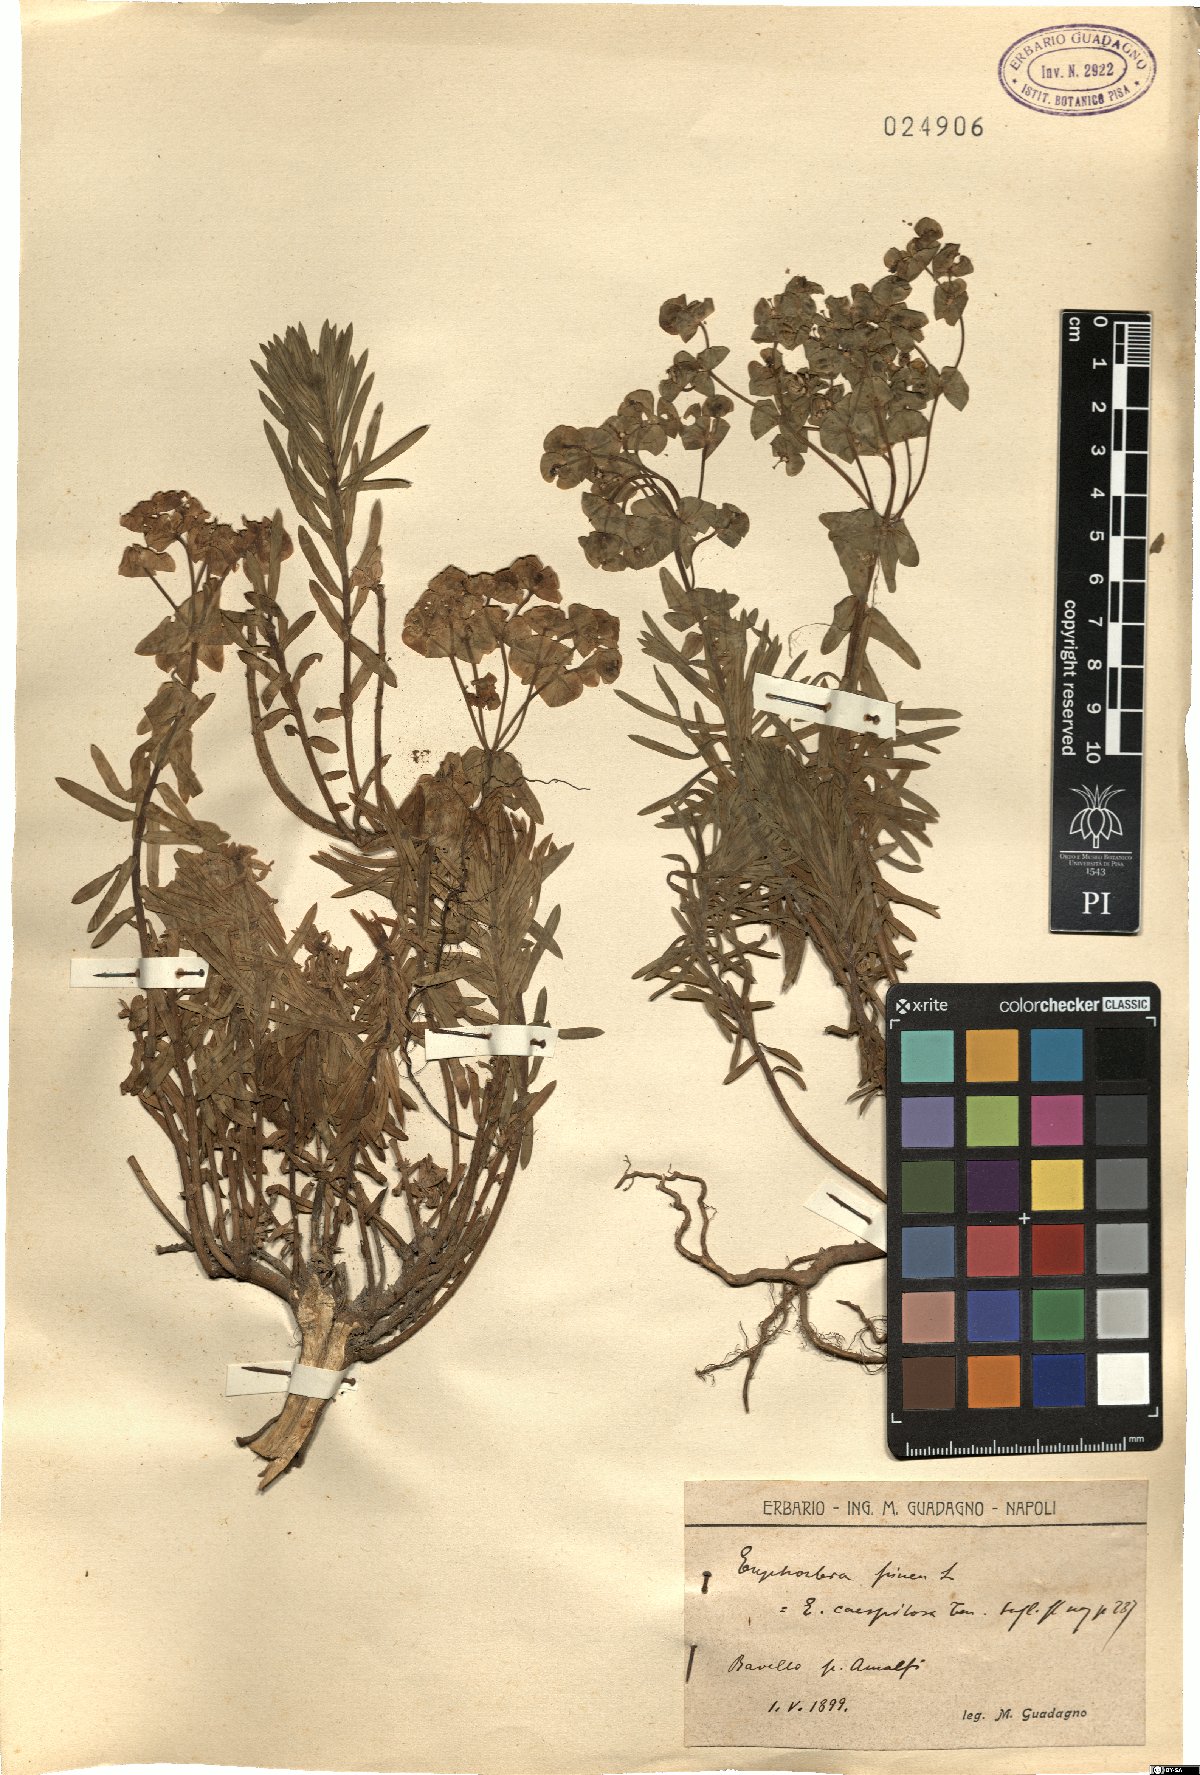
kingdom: Plantae
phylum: Tracheophyta
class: Magnoliopsida
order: Malpighiales
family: Euphorbiaceae
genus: Euphorbia
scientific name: Euphorbia segetalis
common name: Corn spurge
